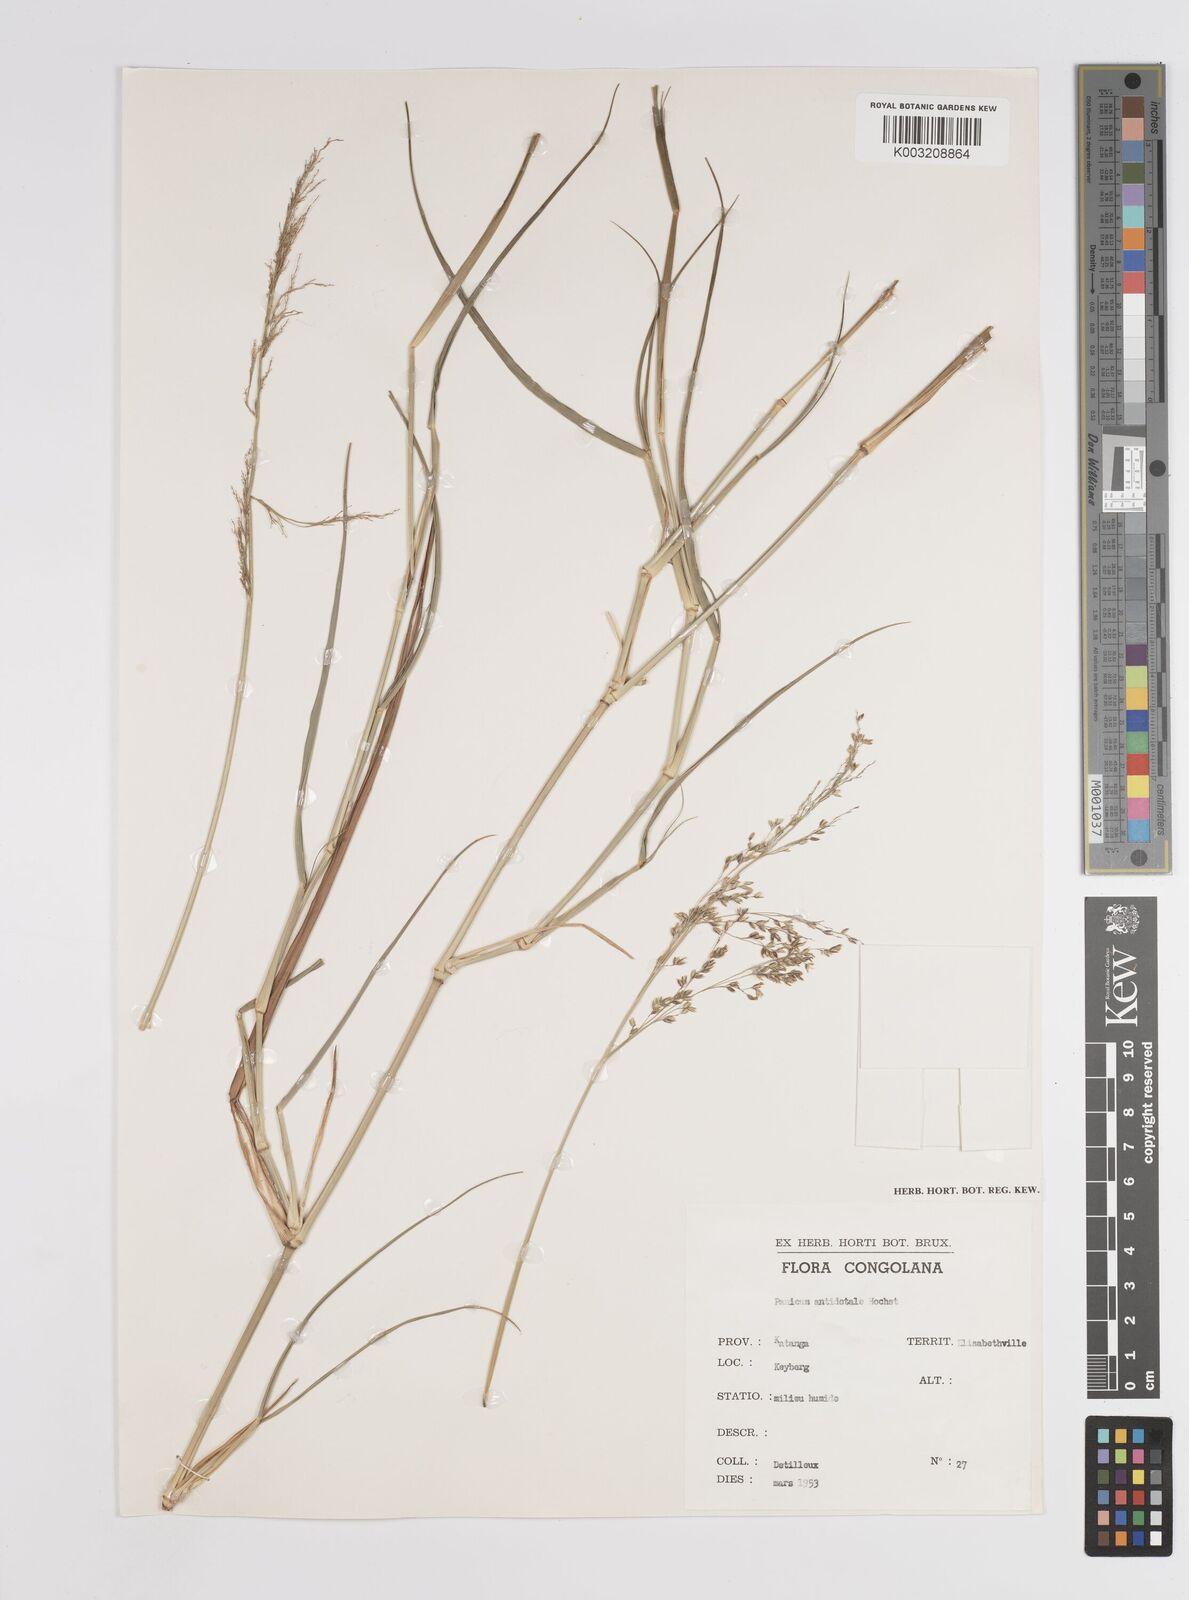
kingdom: Plantae
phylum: Tracheophyta
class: Liliopsida
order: Poales
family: Poaceae
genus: Panicum
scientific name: Panicum antidotale
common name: Blue panicum
